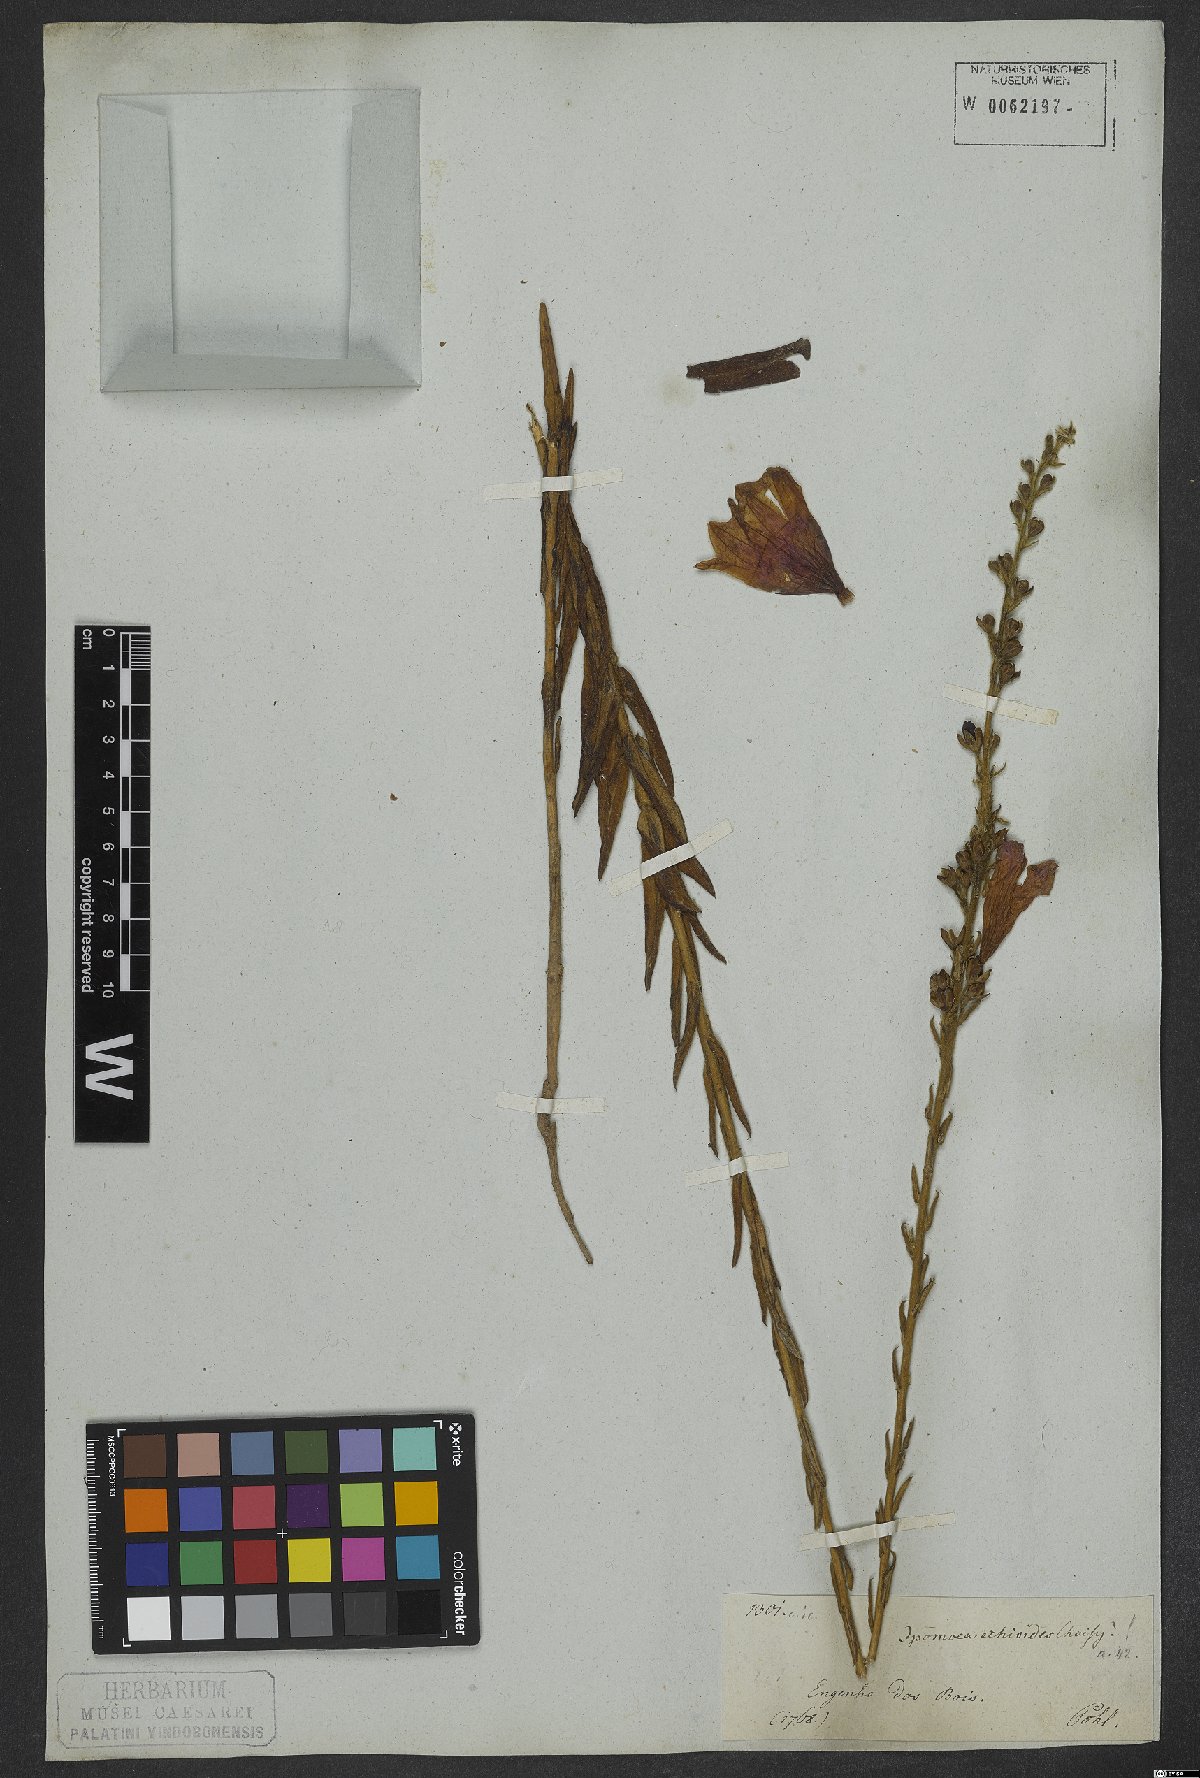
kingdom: Plantae
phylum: Tracheophyta
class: Magnoliopsida
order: Solanales
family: Convolvulaceae
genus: Ipomoea
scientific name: Ipomoea paulistana
